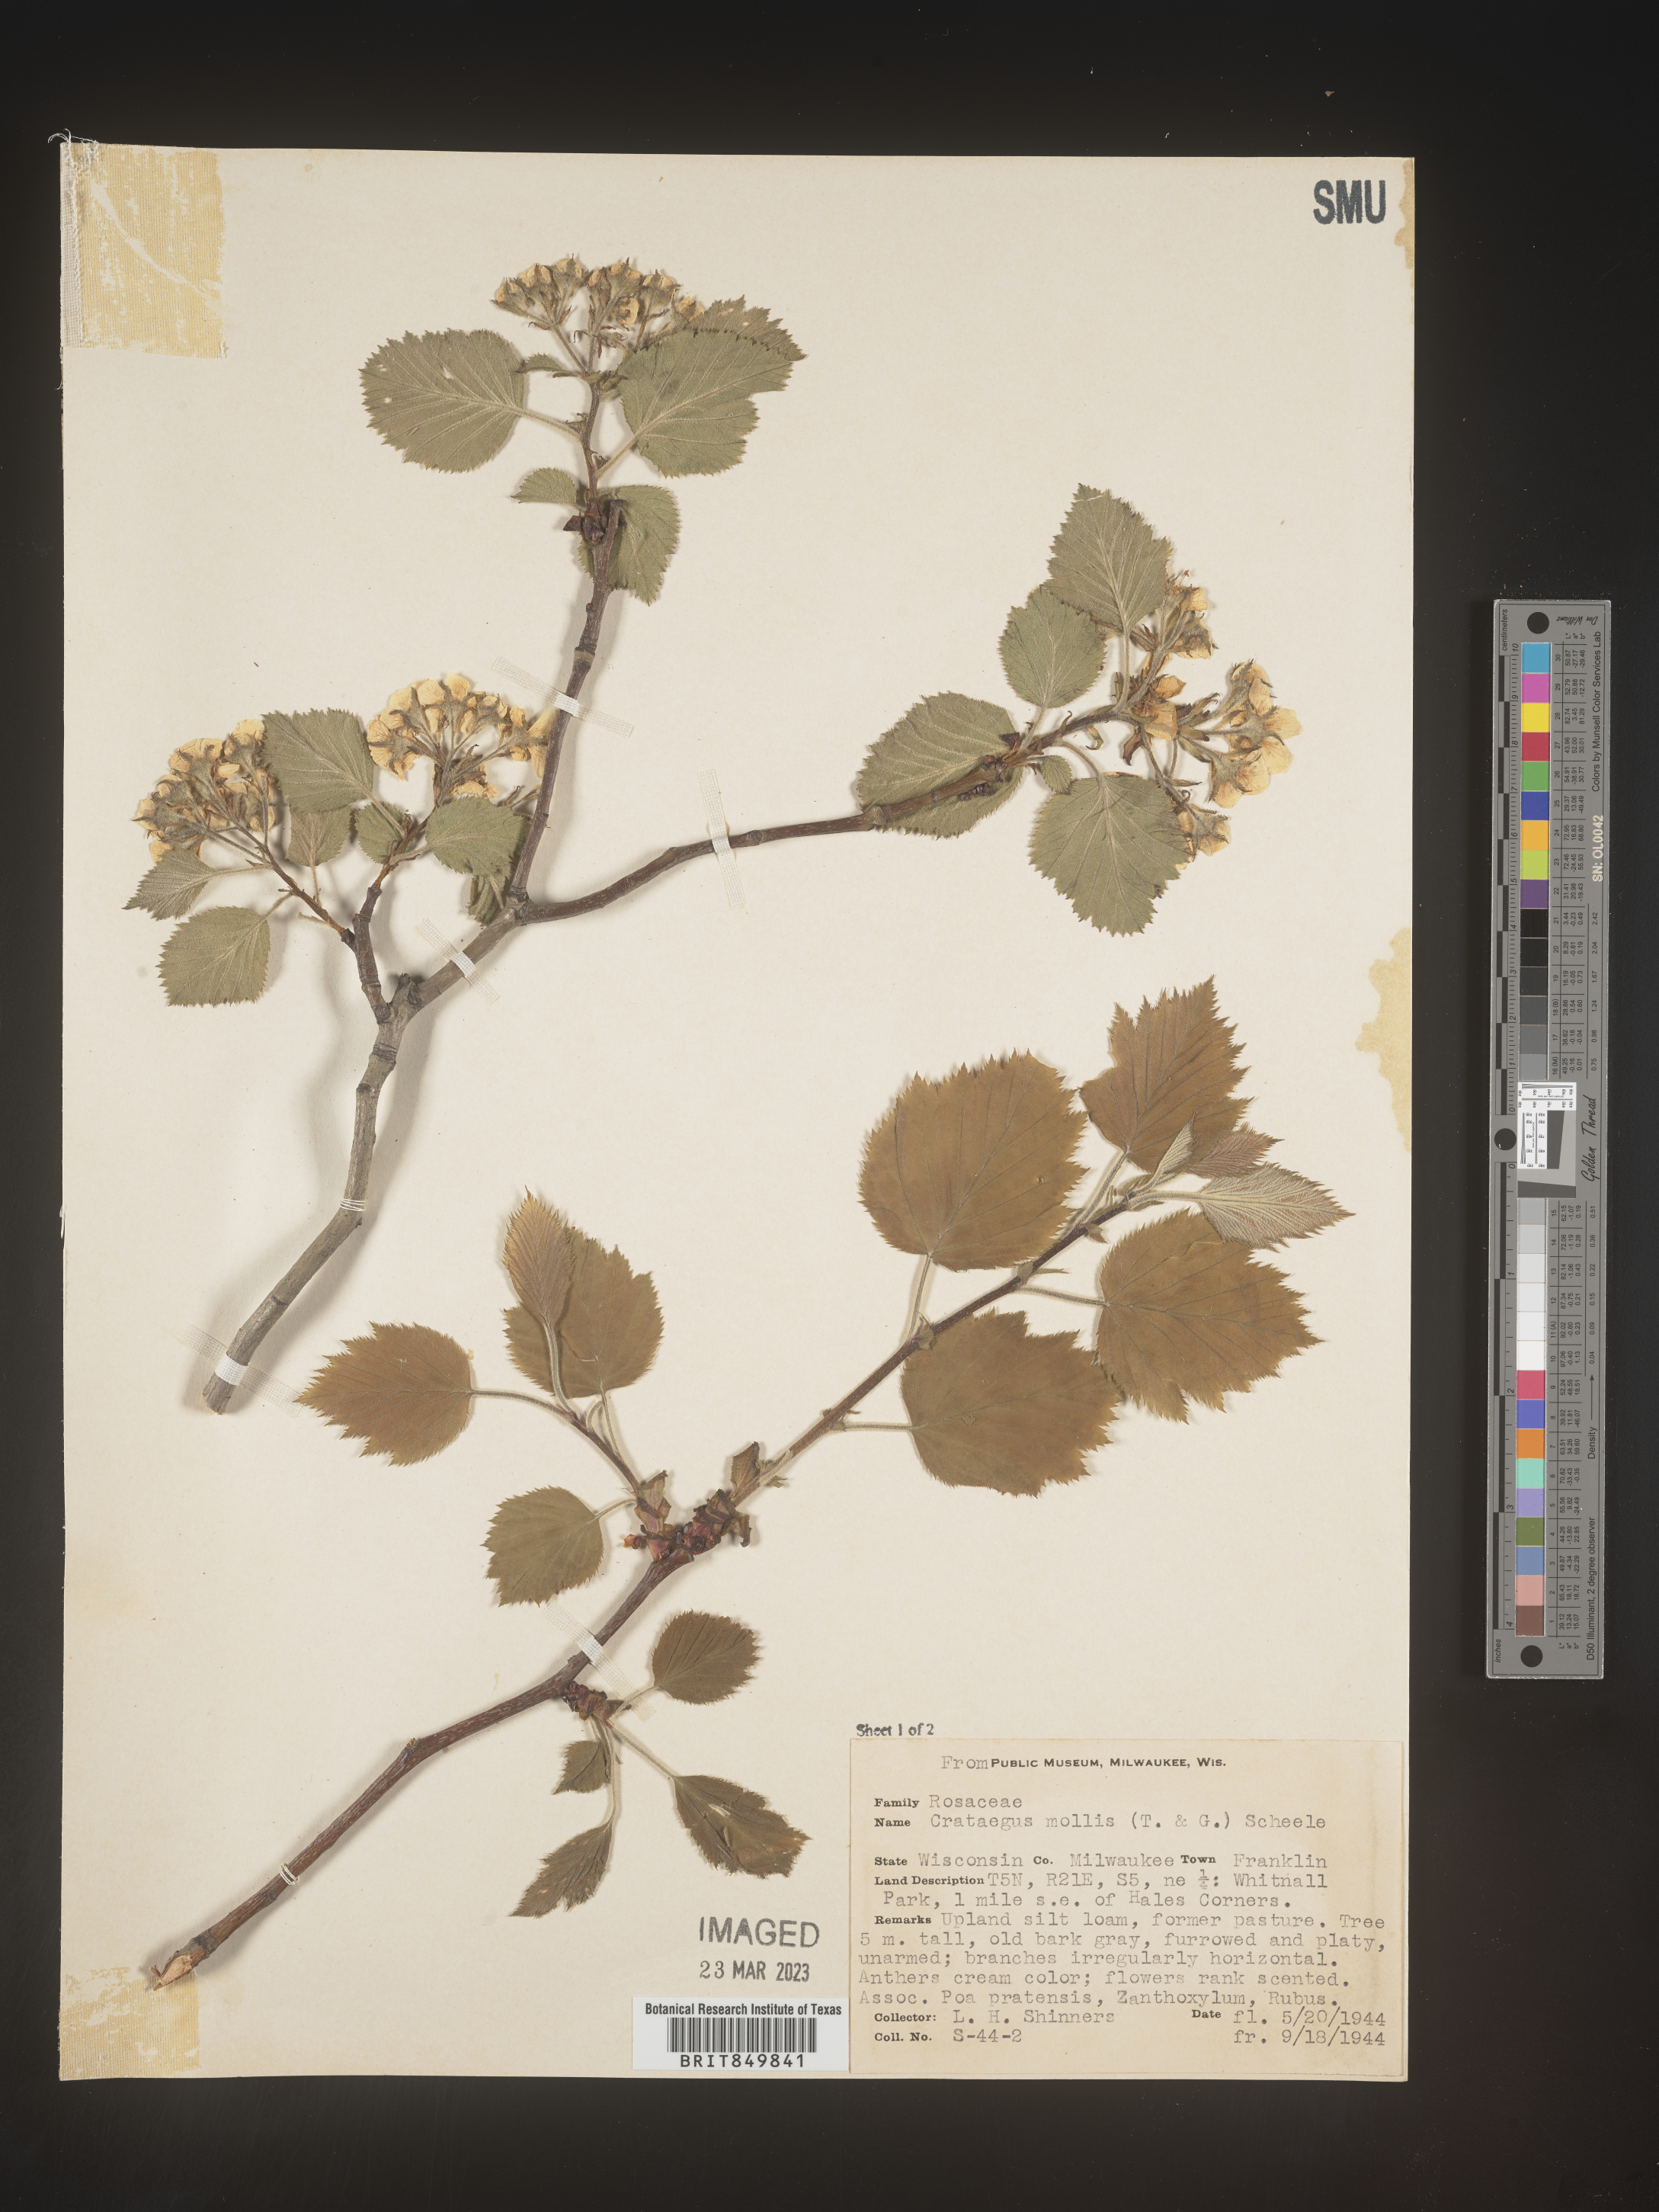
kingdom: Plantae
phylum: Tracheophyta
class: Magnoliopsida
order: Rosales
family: Rosaceae
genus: Crataegus
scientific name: Crataegus mollis
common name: Downy hawthorn
